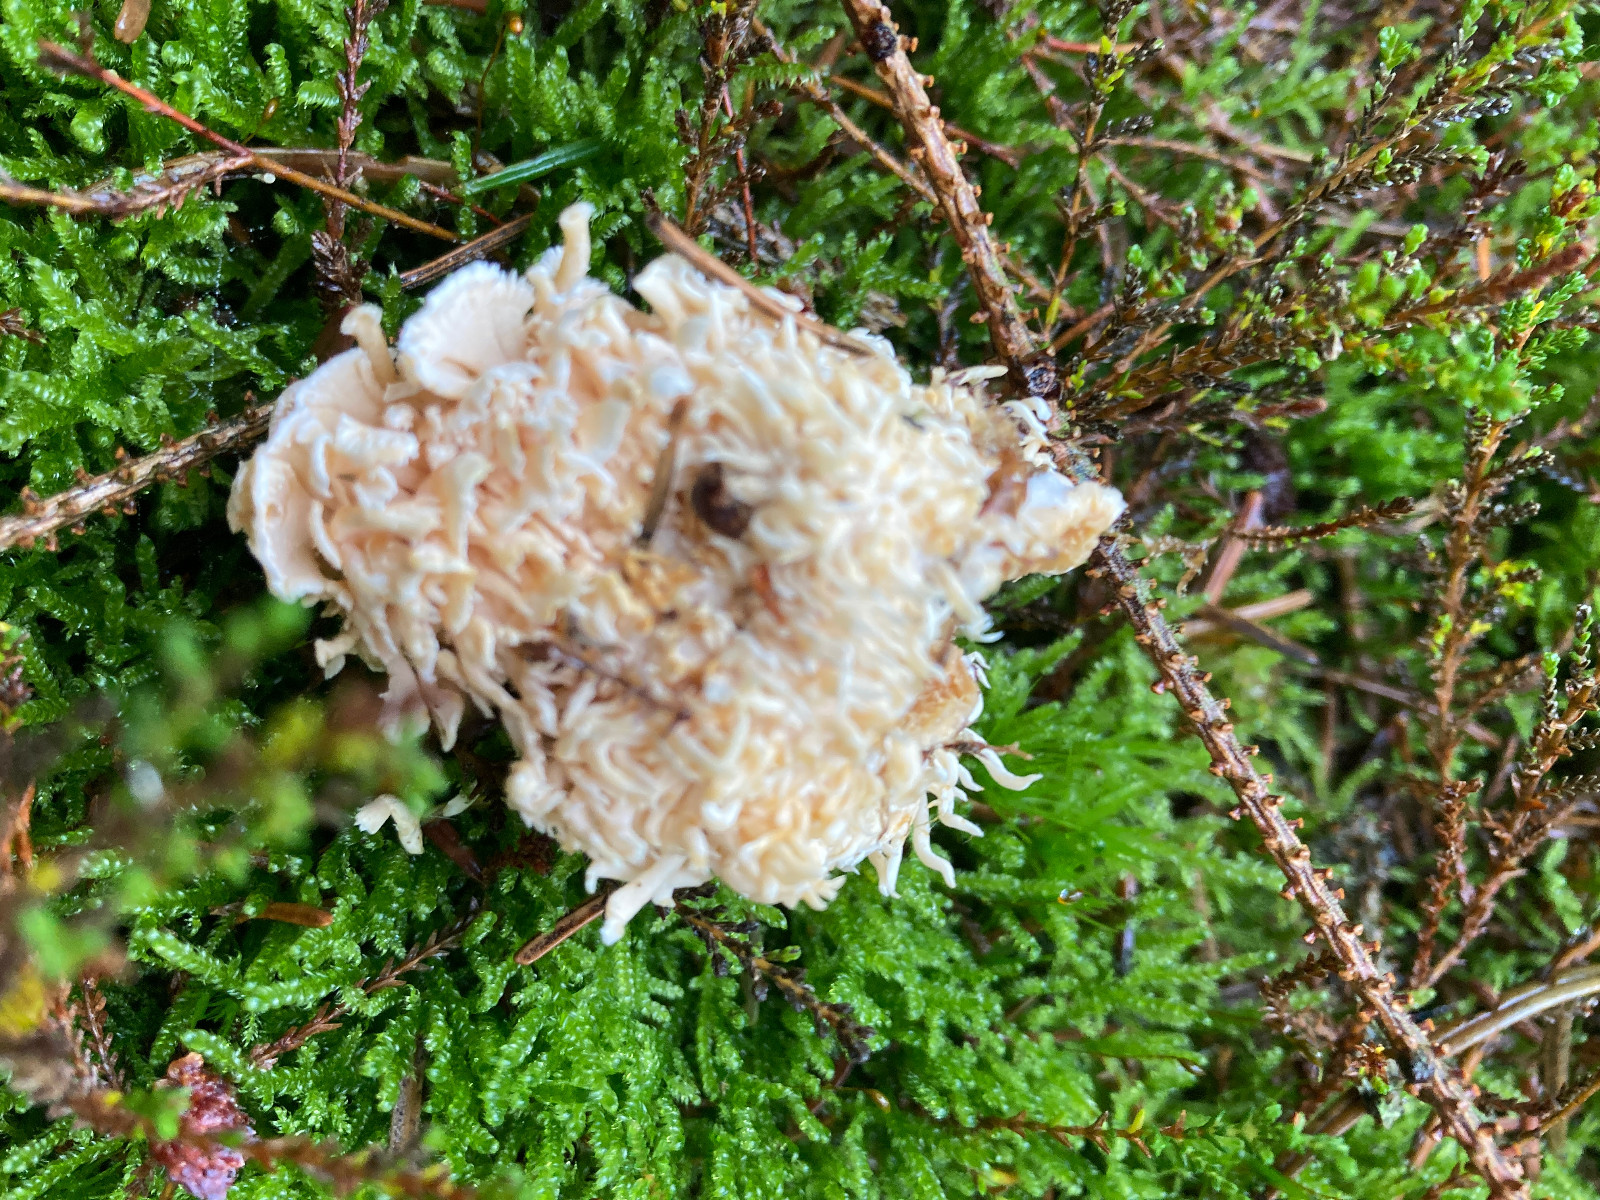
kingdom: Fungi
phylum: Basidiomycota
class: Agaricomycetes
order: Cantharellales
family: Hydnaceae
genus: Hydnum
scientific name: Hydnum repandum
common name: almindelig pigsvamp
